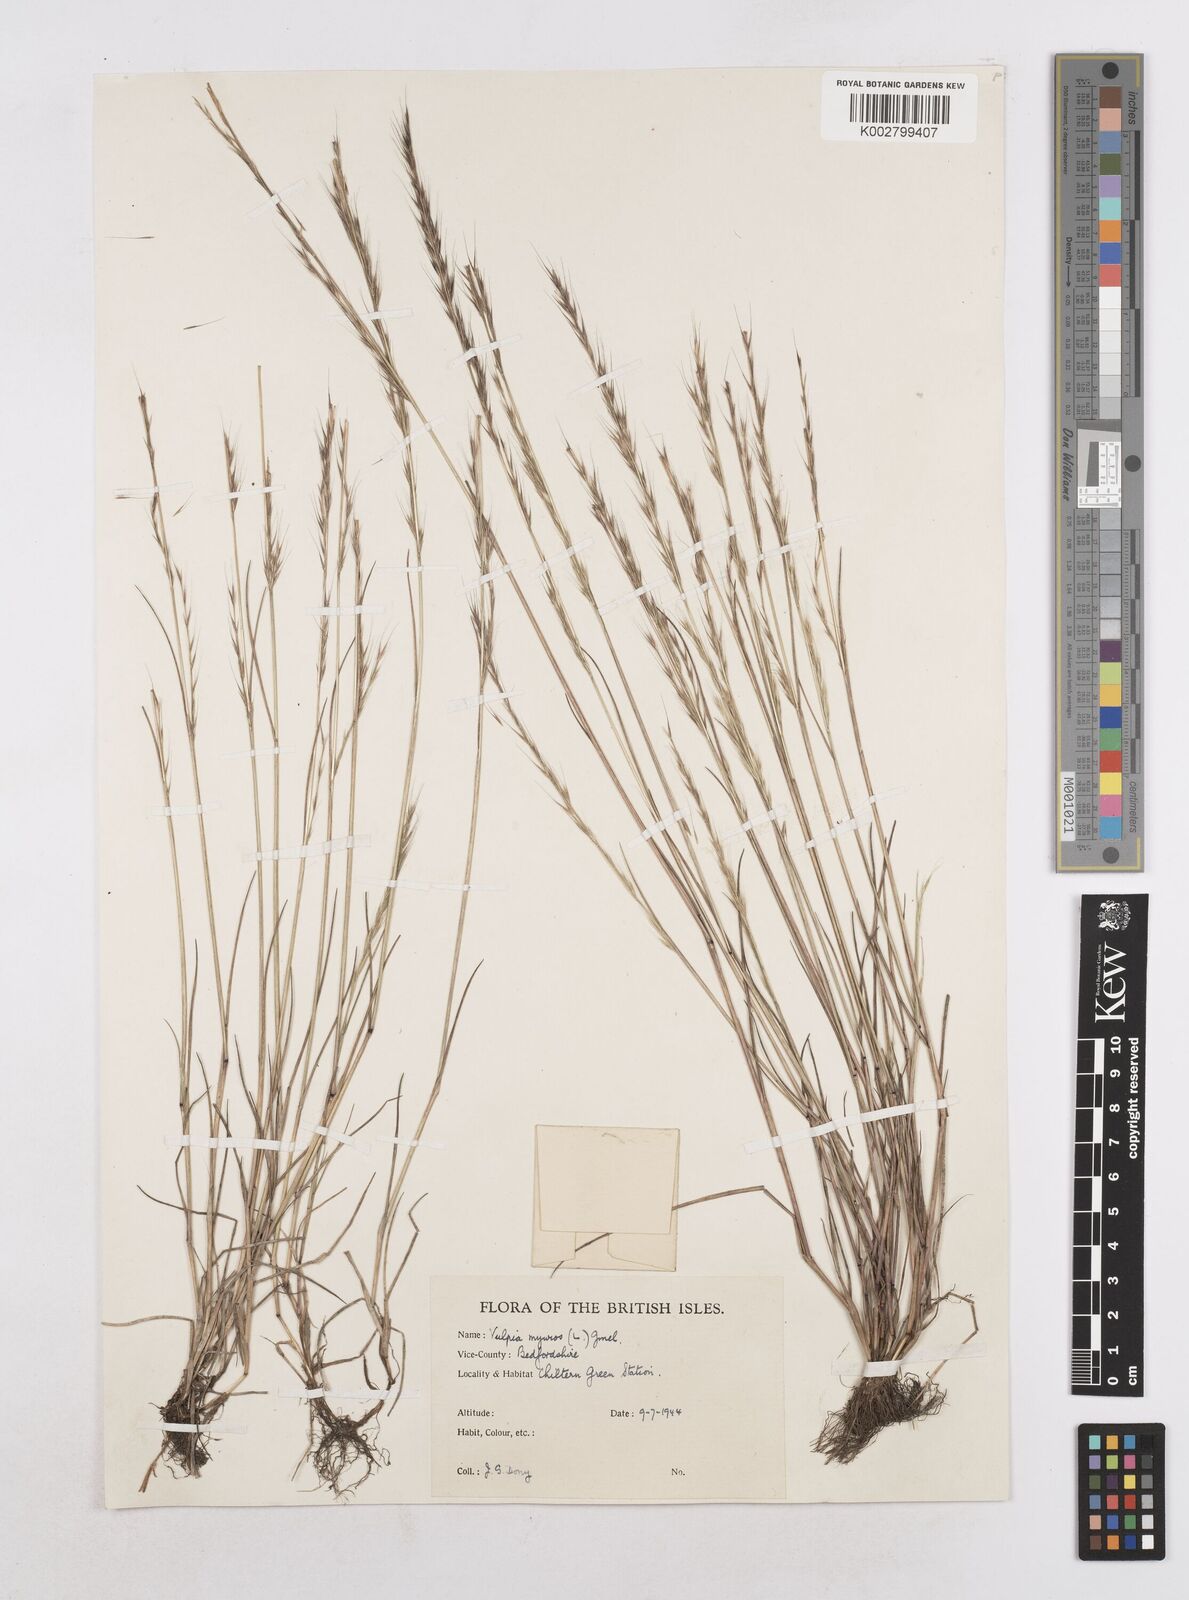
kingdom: Plantae
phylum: Tracheophyta
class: Liliopsida
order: Poales
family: Poaceae
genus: Festuca
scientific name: Festuca myuros
